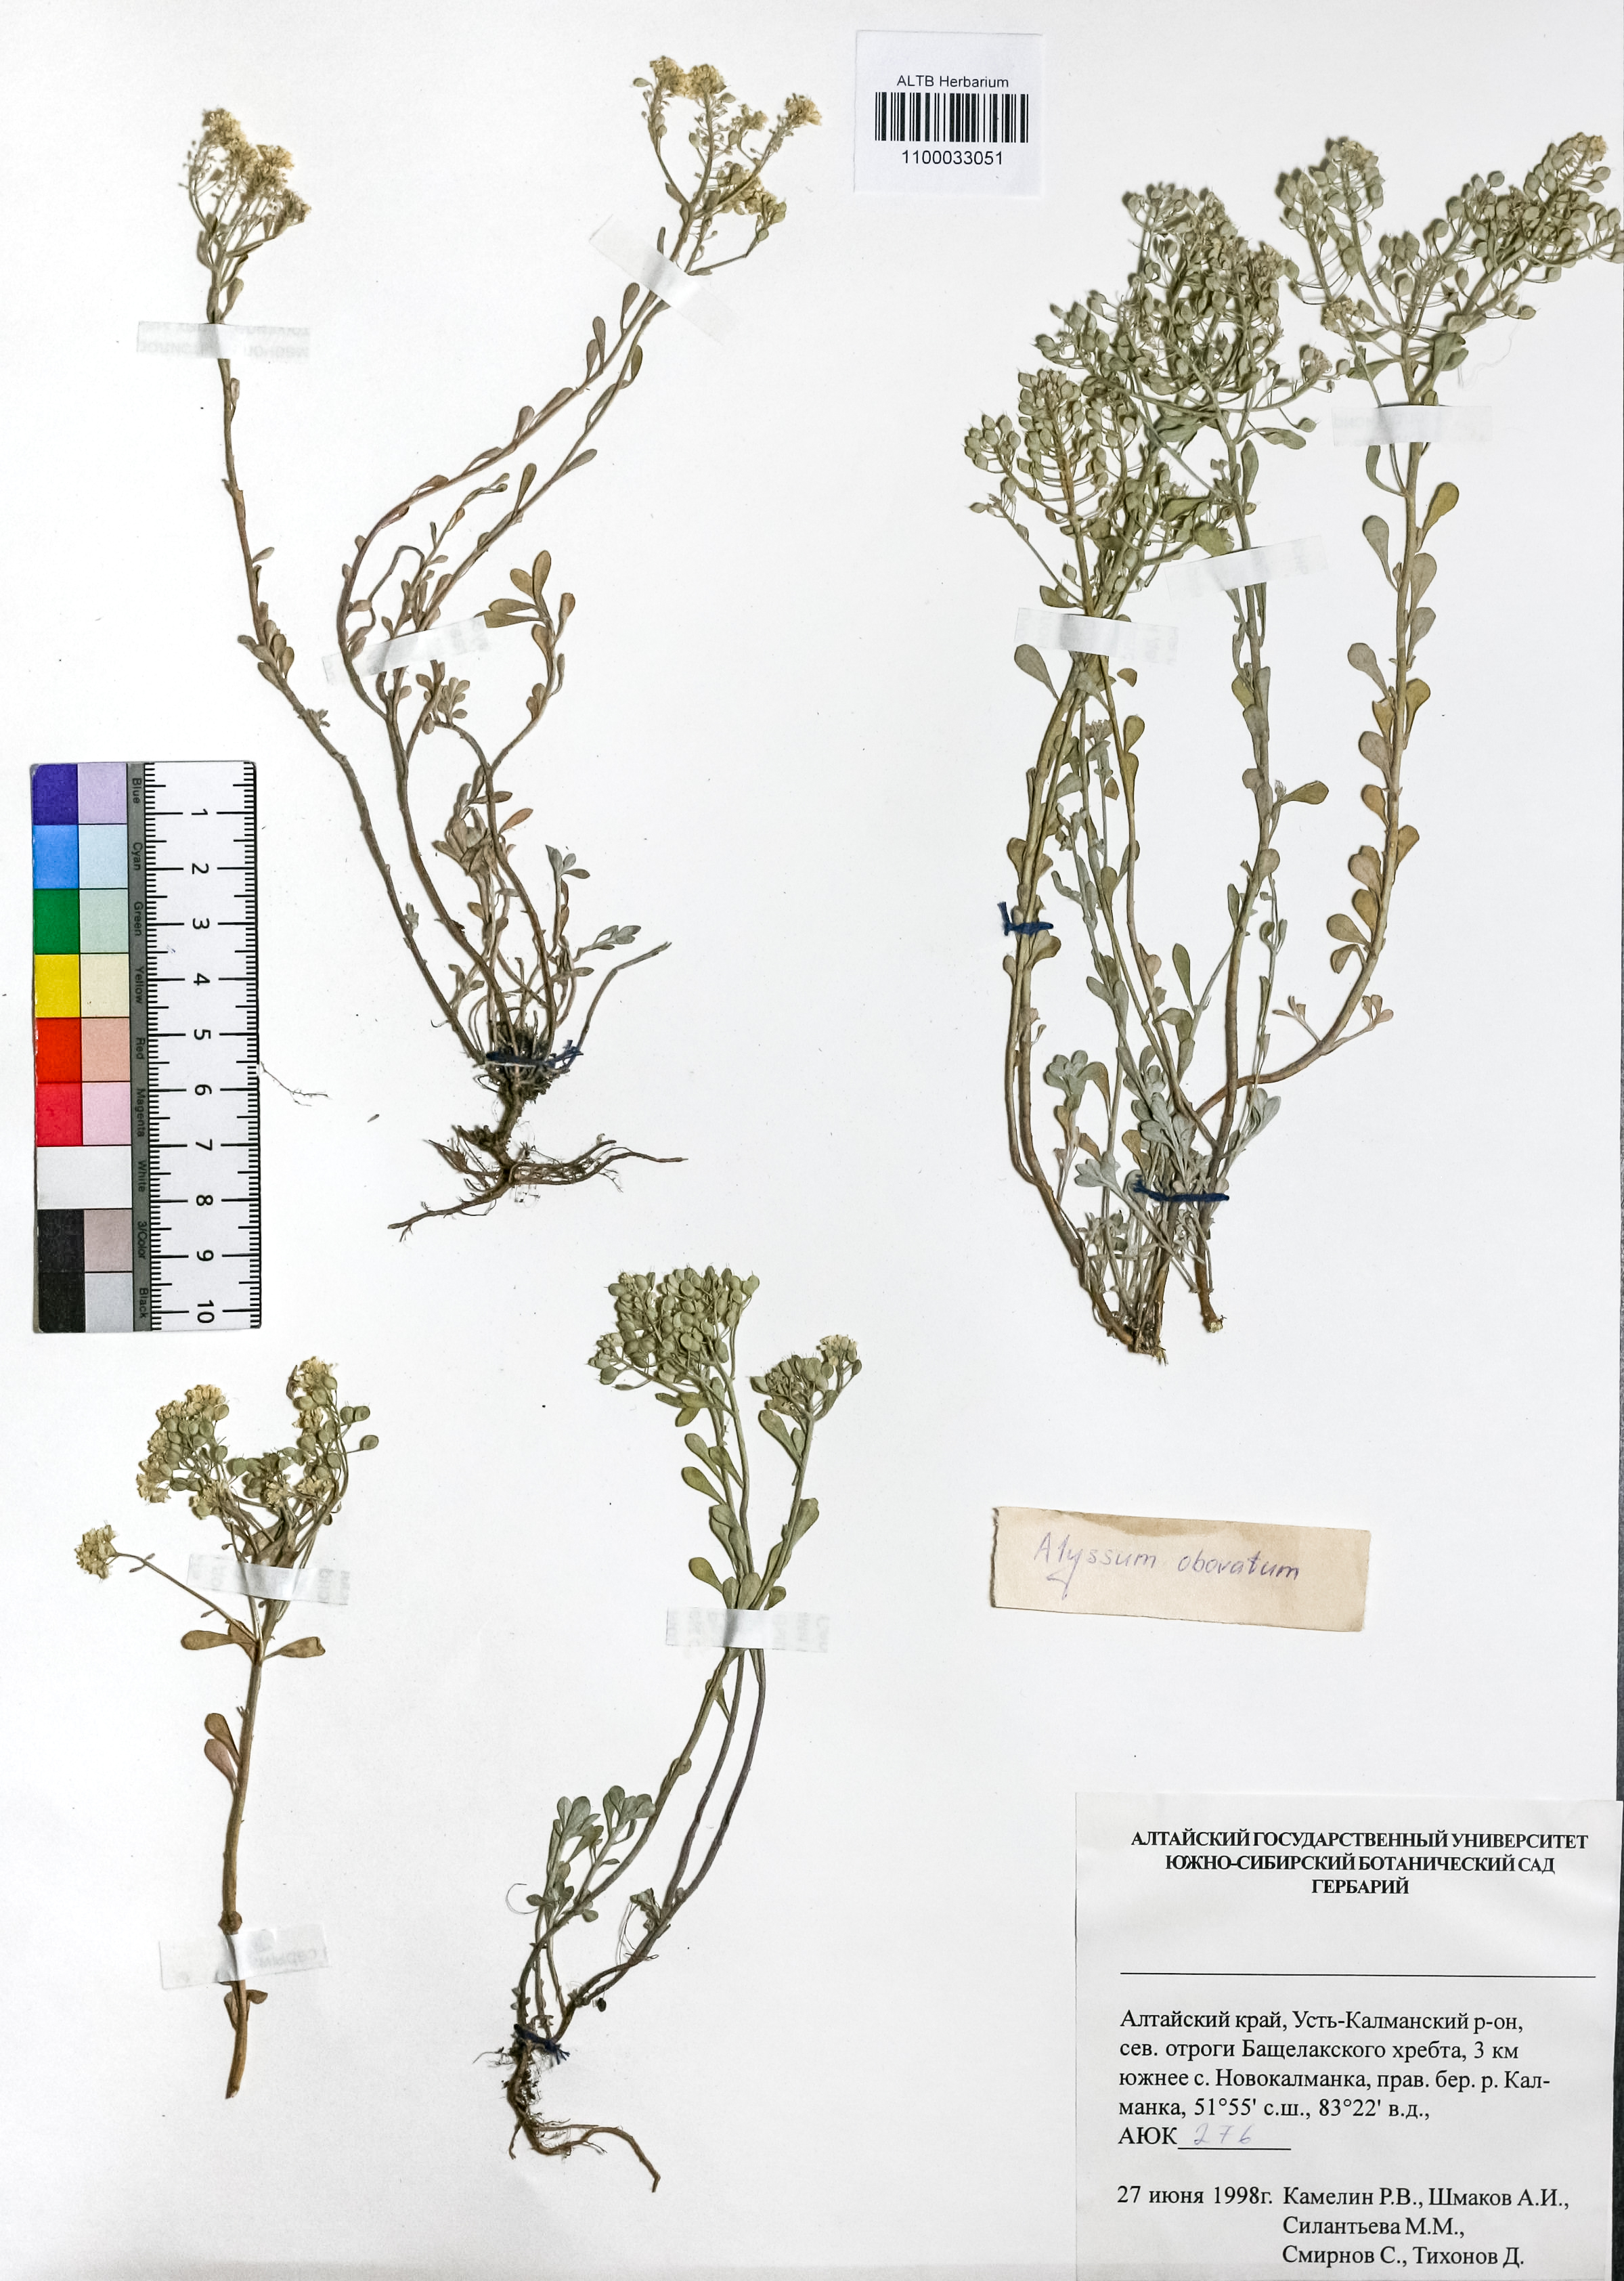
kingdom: Plantae
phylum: Tracheophyta
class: Magnoliopsida
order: Brassicales
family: Brassicaceae
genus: Odontarrhena
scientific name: Odontarrhena obovata
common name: American alyssum
